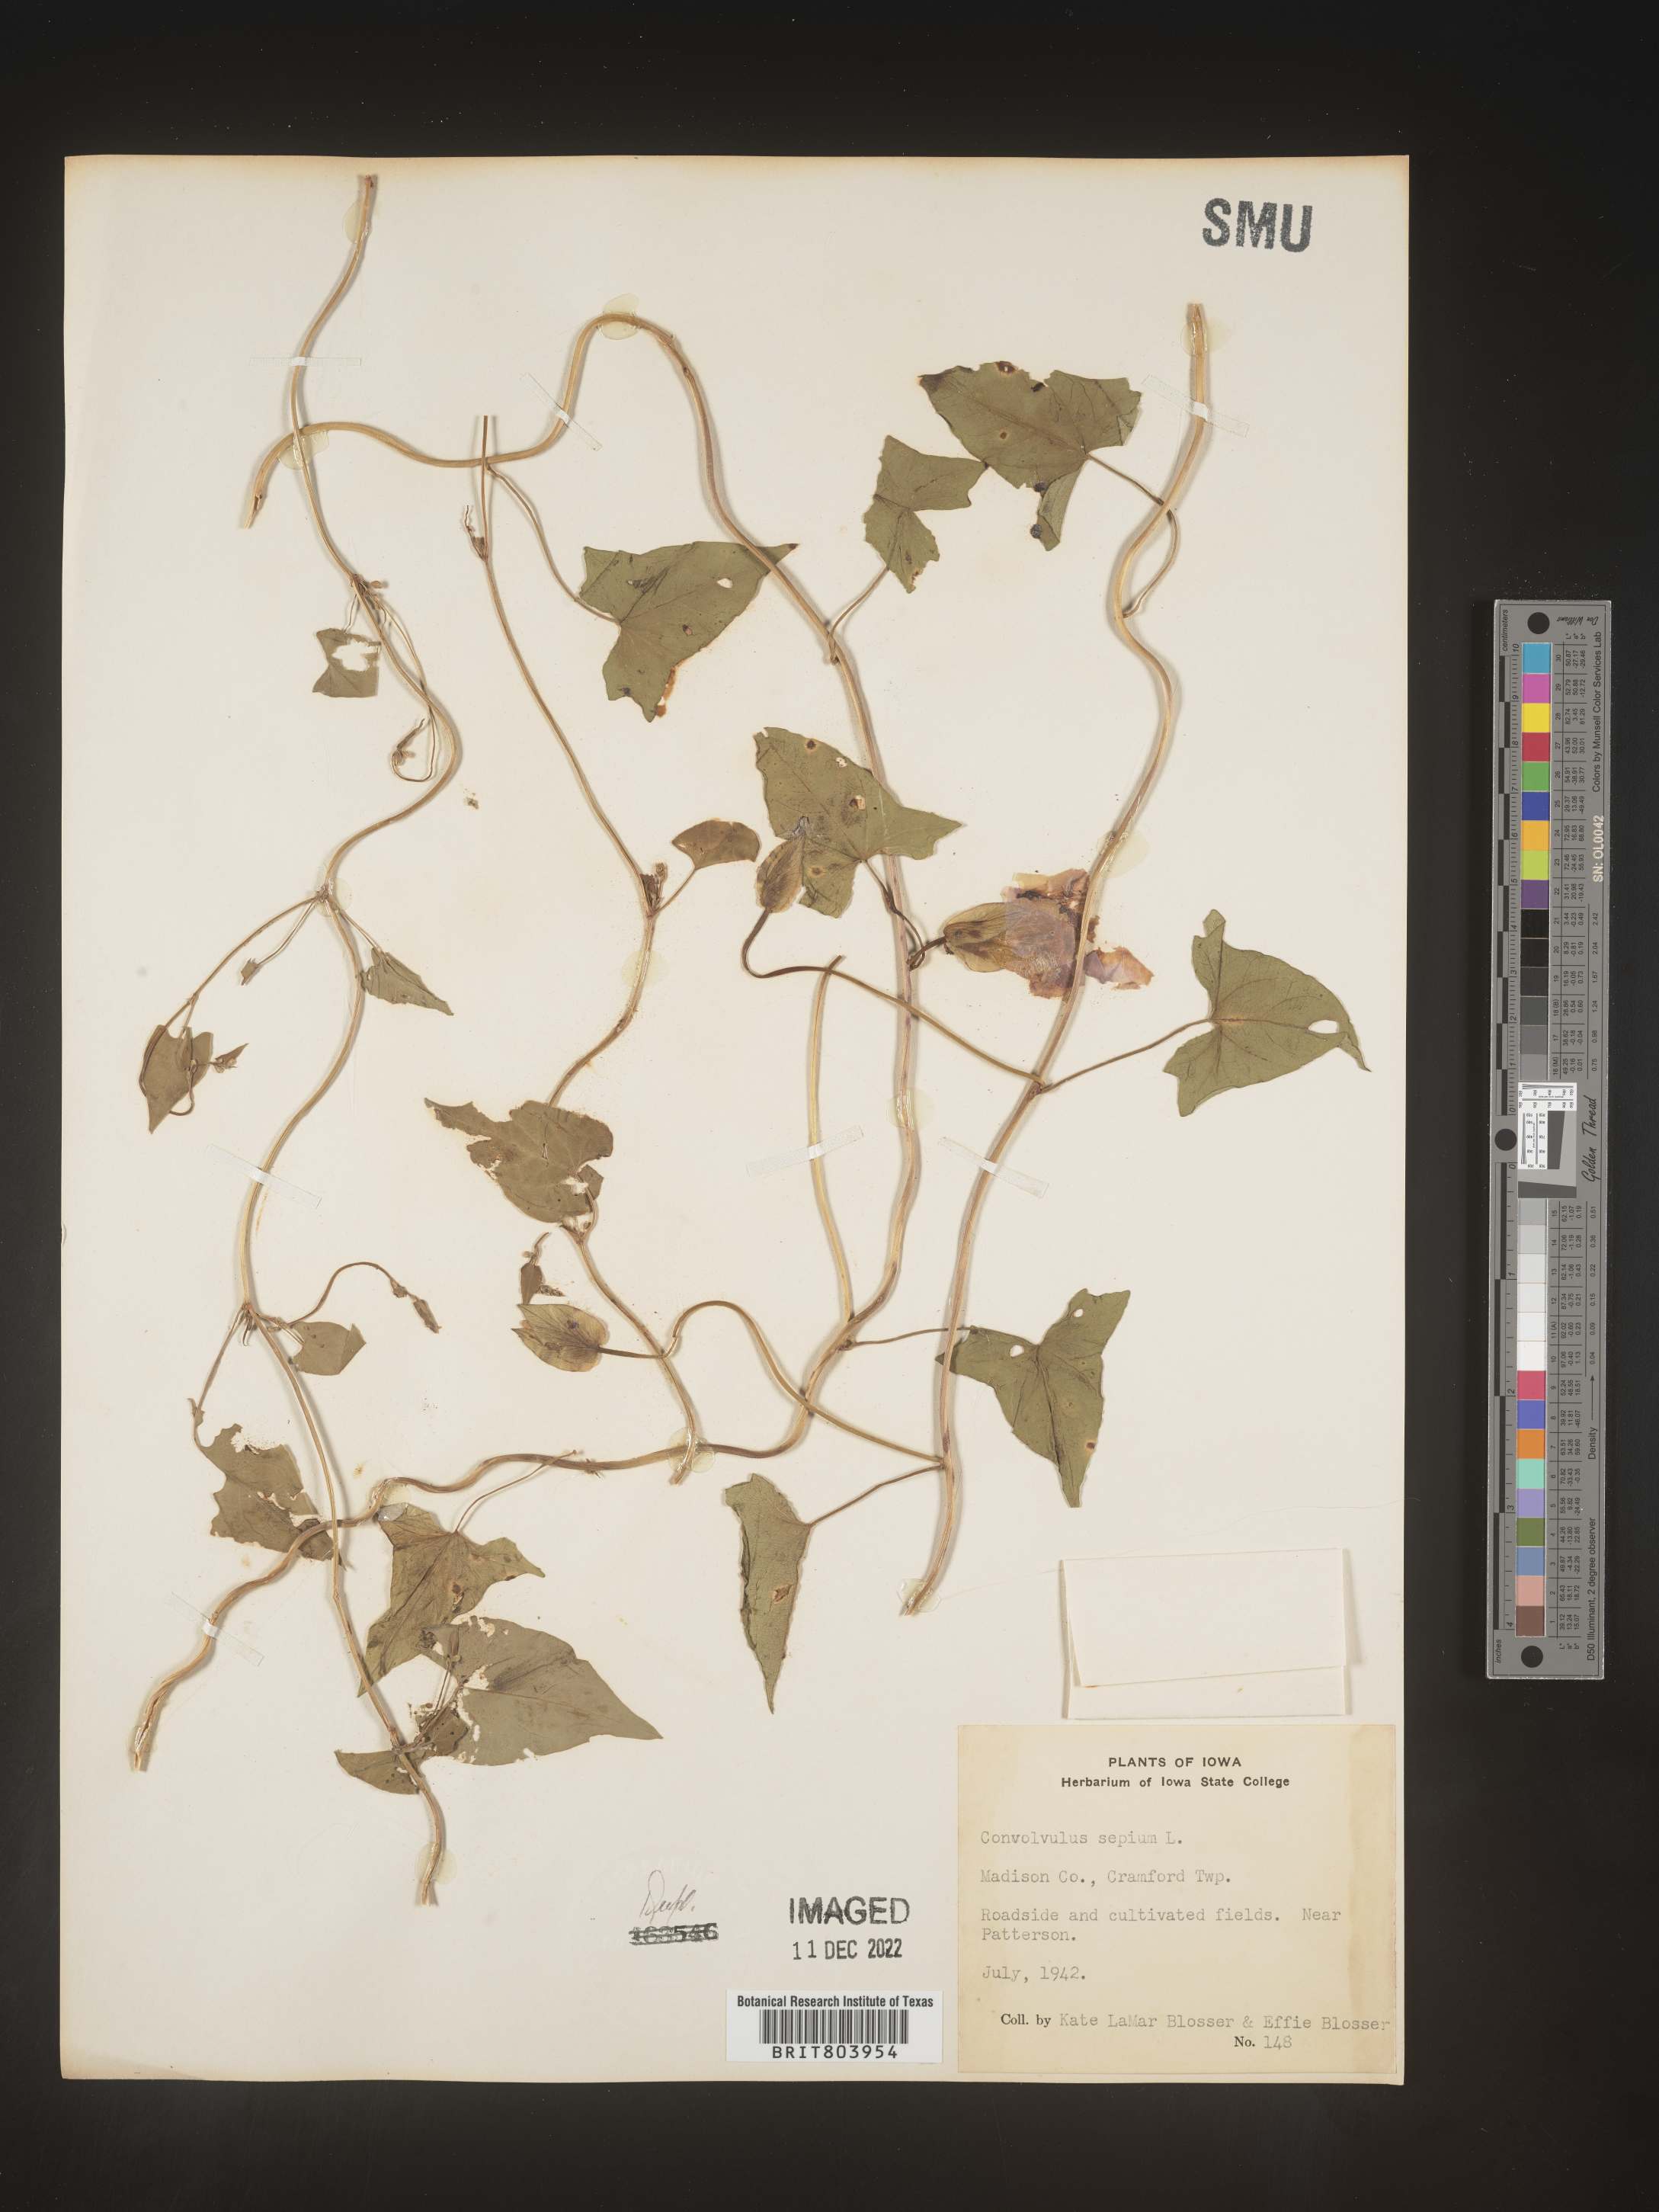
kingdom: Plantae
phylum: Tracheophyta
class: Magnoliopsida
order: Solanales
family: Convolvulaceae
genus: Calystegia
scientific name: Calystegia sepium
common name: Hedge bindweed
